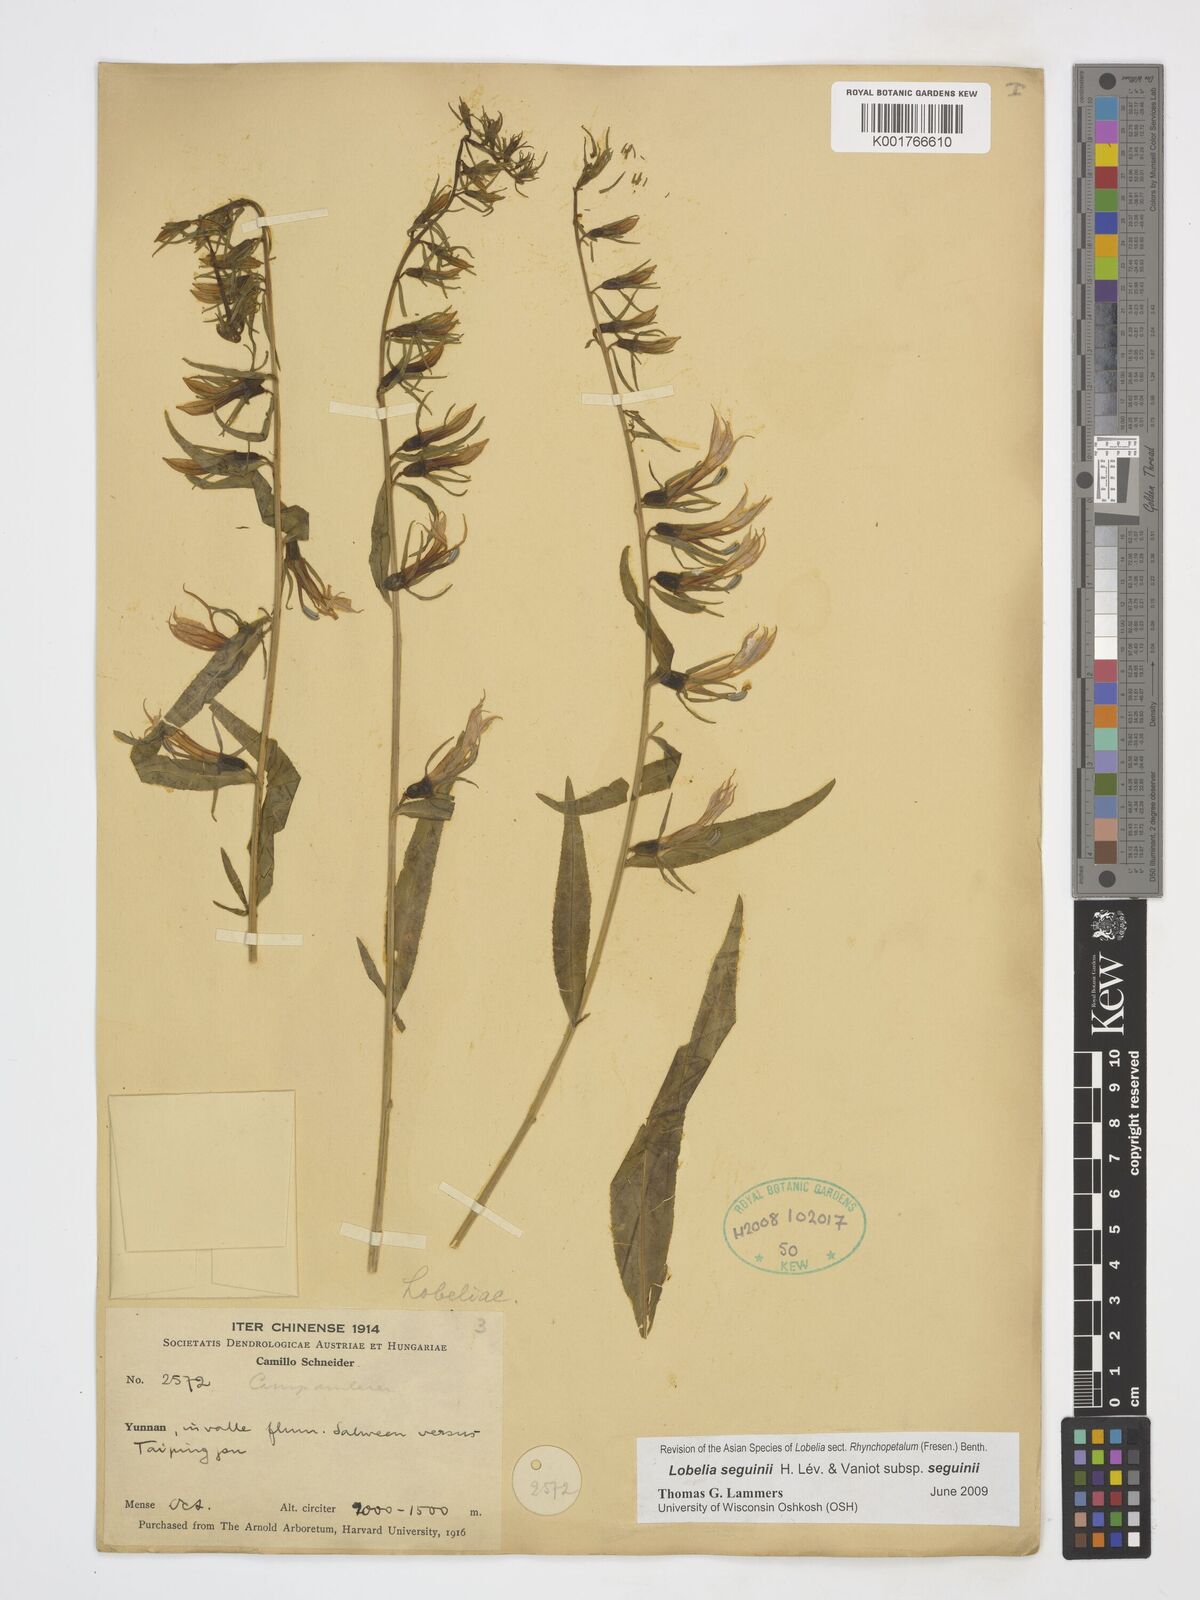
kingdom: Plantae
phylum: Tracheophyta
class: Magnoliopsida
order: Asterales
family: Campanulaceae
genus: Lobelia
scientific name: Lobelia seguinii
